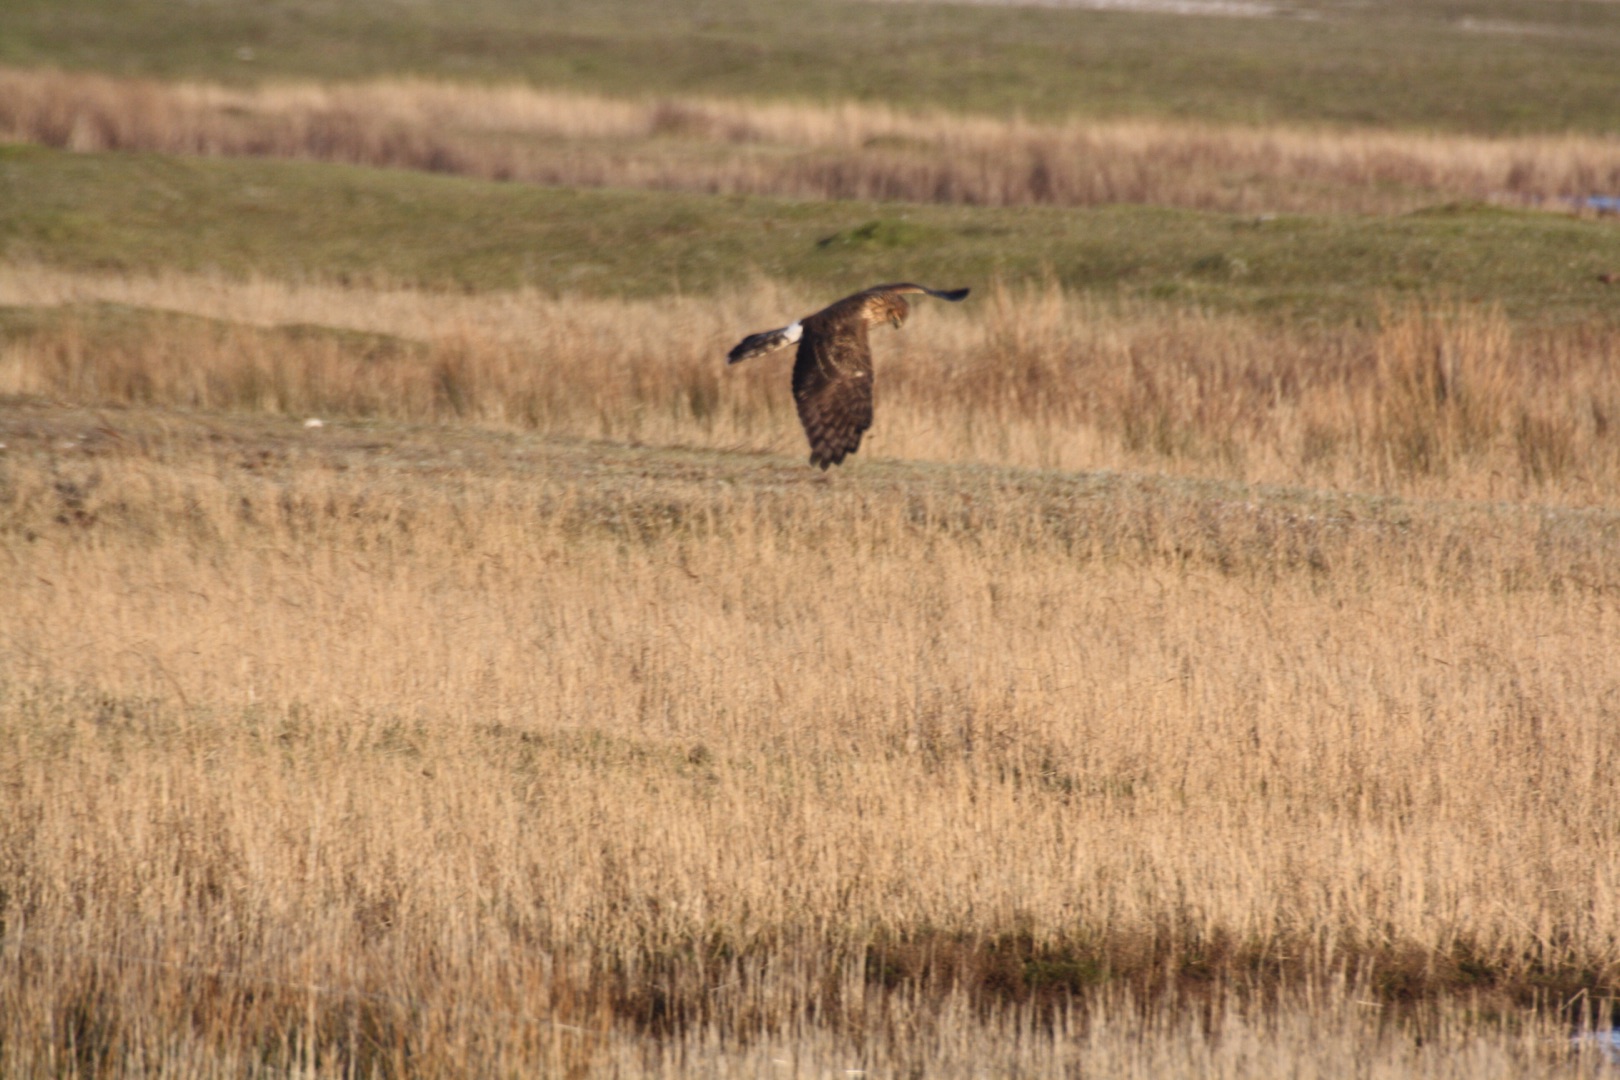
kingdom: Animalia
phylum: Chordata
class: Aves
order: Accipitriformes
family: Accipitridae
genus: Circus
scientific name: Circus cyaneus
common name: Blå kærhøg
